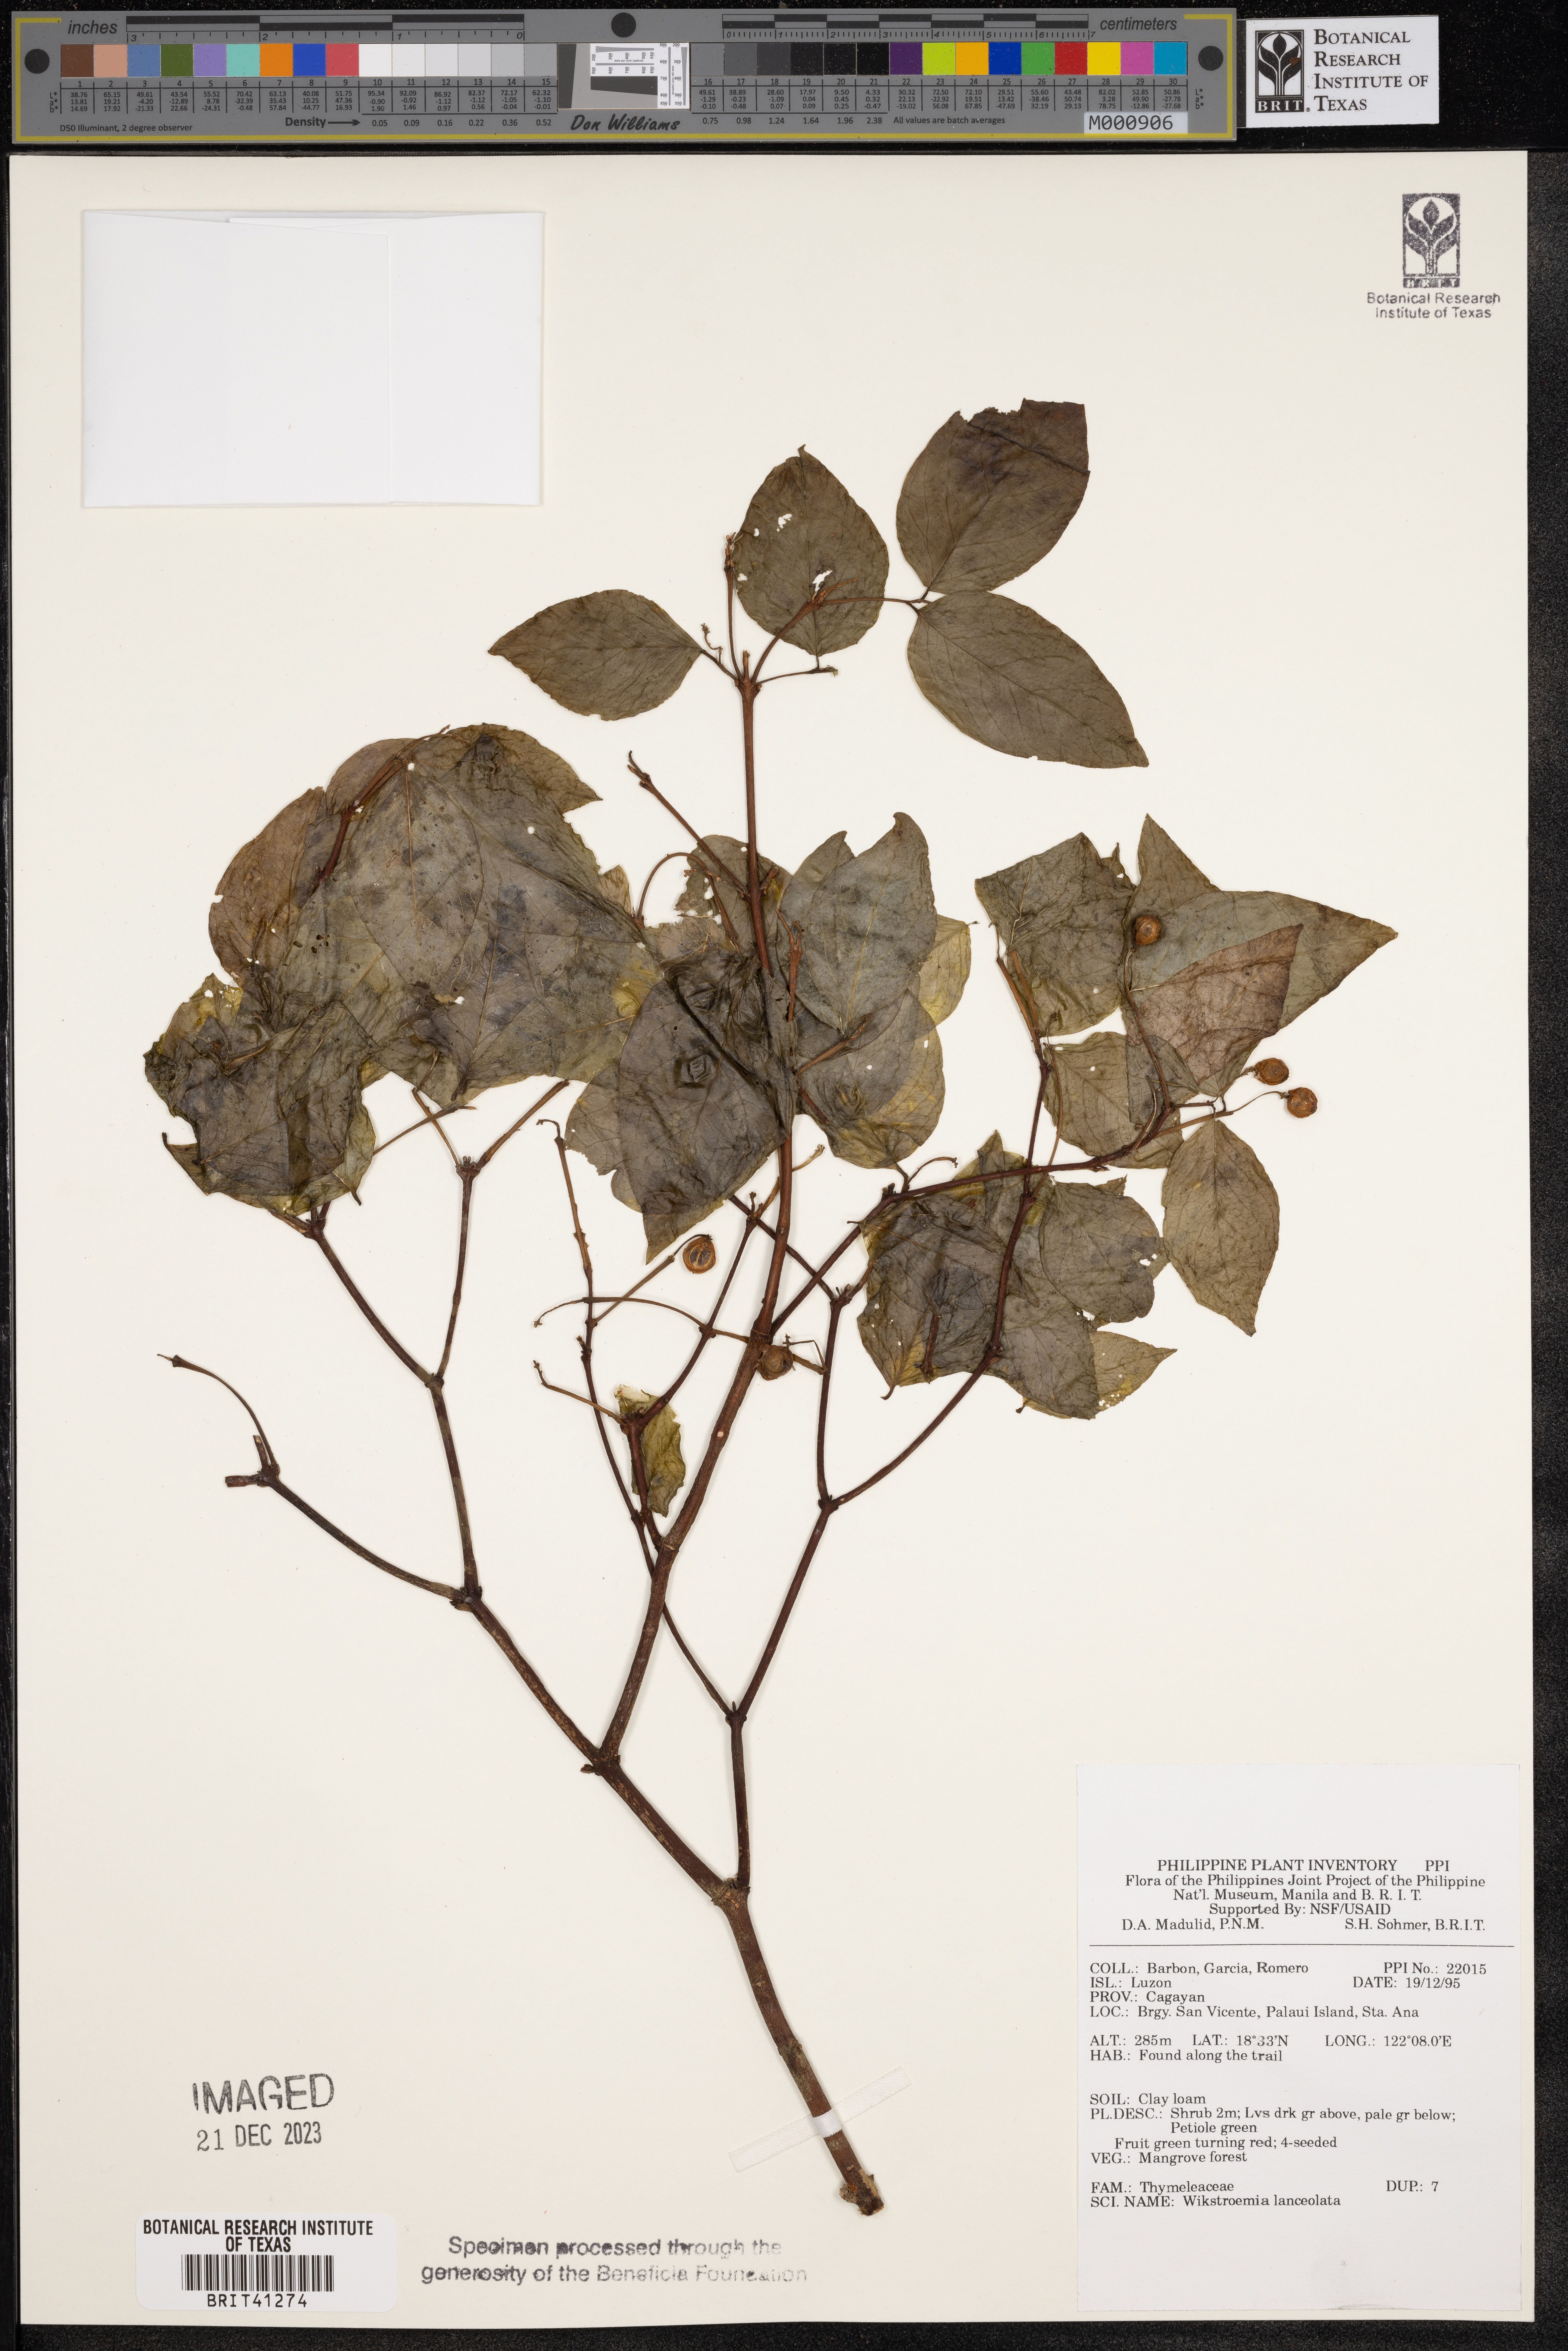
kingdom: Plantae
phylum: Tracheophyta
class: Magnoliopsida
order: Malvales
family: Thymelaeaceae
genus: Wikstroemia
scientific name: Wikstroemia lanceolata
